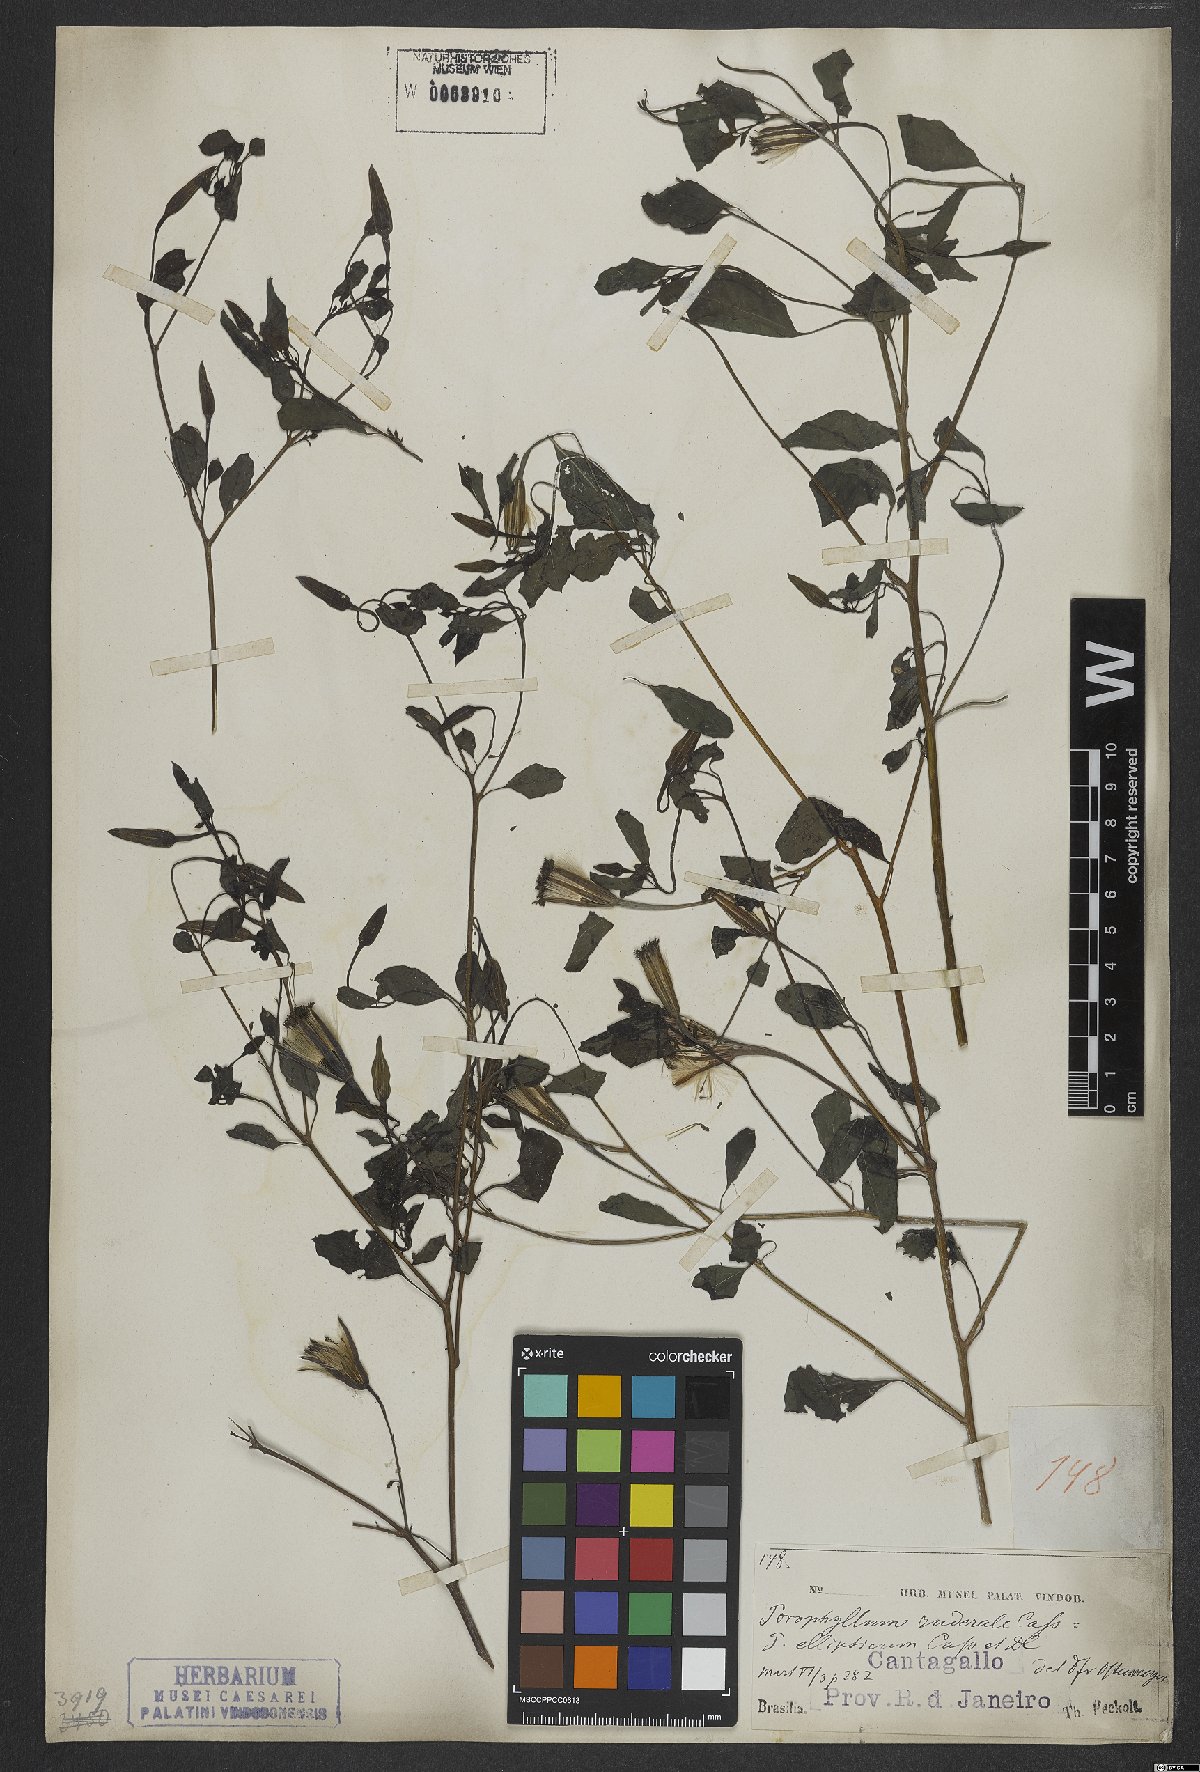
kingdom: Plantae
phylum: Tracheophyta
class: Magnoliopsida
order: Asterales
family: Asteraceae
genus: Porophyllum
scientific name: Porophyllum ruderale
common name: Yerba porosa
